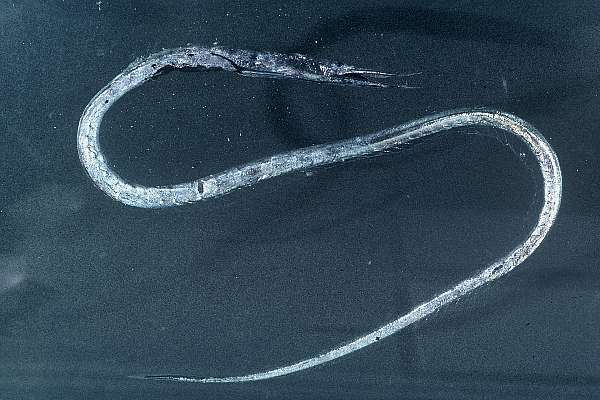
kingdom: Animalia
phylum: Chordata
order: Anguilliformes
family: Serrivomeridae
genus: Serrivomer
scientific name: Serrivomer beanii
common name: Bean's sawtooth eel
